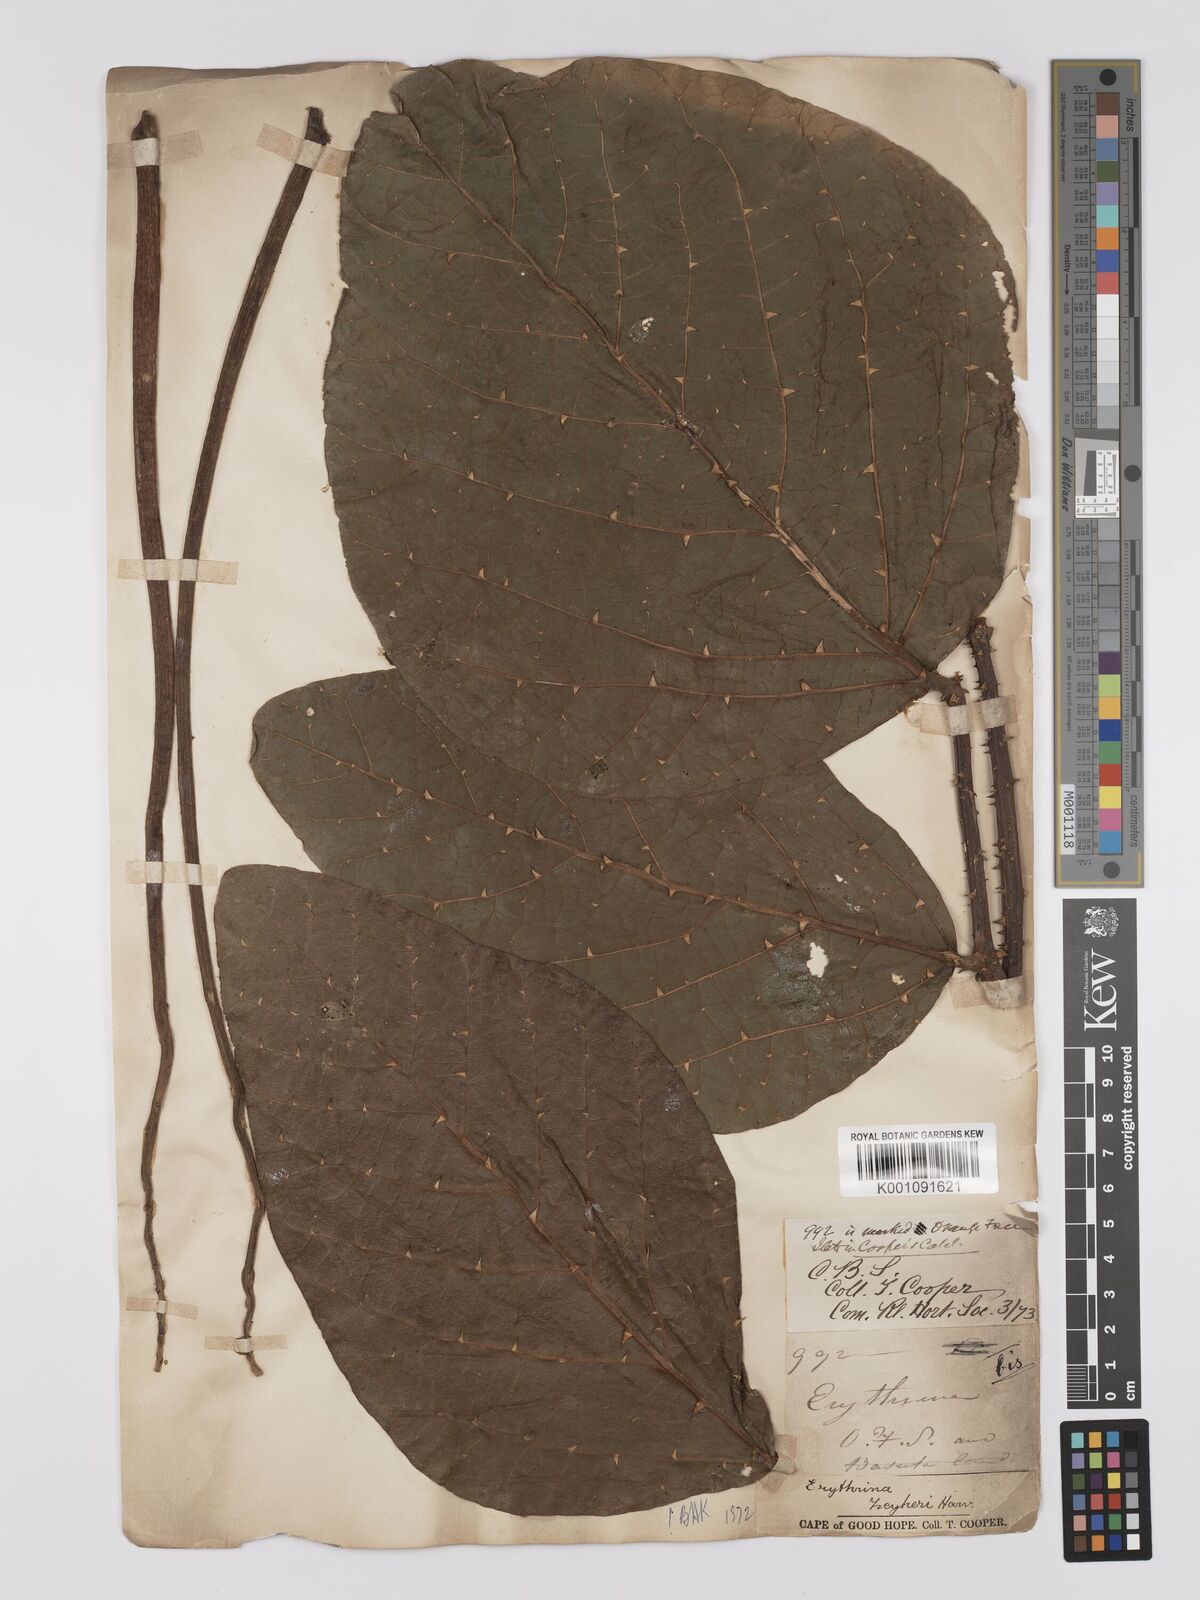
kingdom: Plantae
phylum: Tracheophyta
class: Magnoliopsida
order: Fabales
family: Fabaceae
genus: Erythrina
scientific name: Erythrina zeyheri
